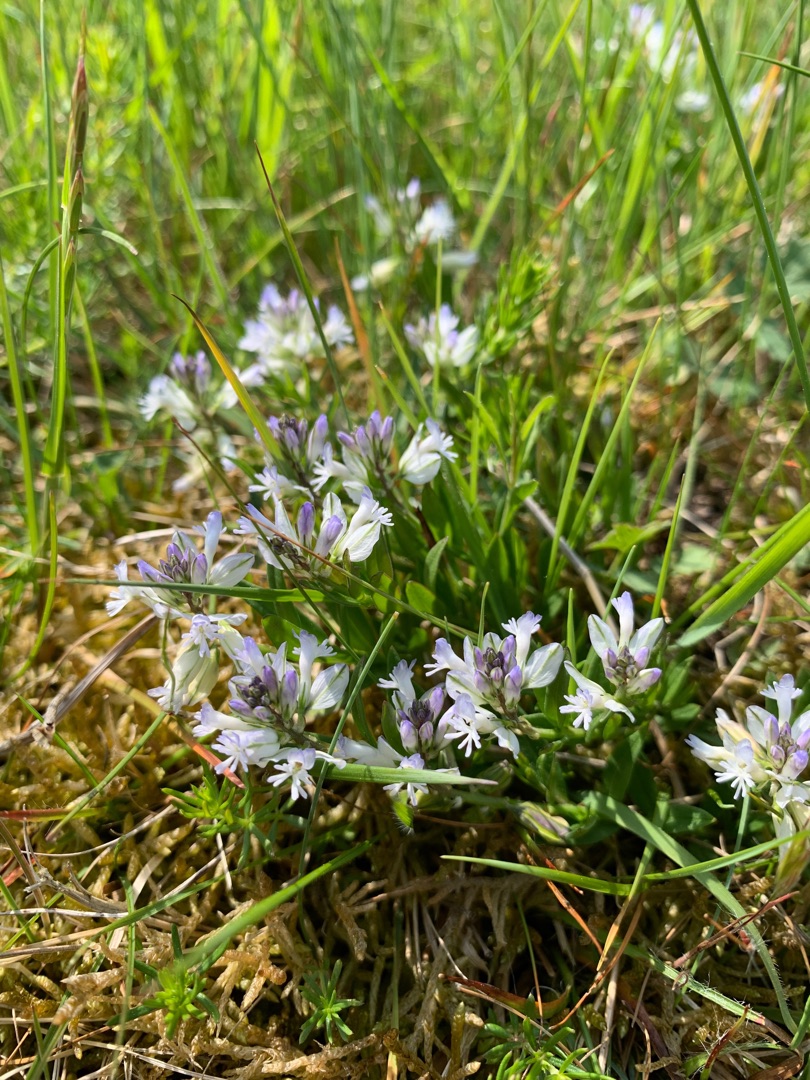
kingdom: Plantae
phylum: Tracheophyta
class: Magnoliopsida
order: Fabales
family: Polygalaceae
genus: Polygala
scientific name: Polygala vulgaris
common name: Almindelig mælkeurt
